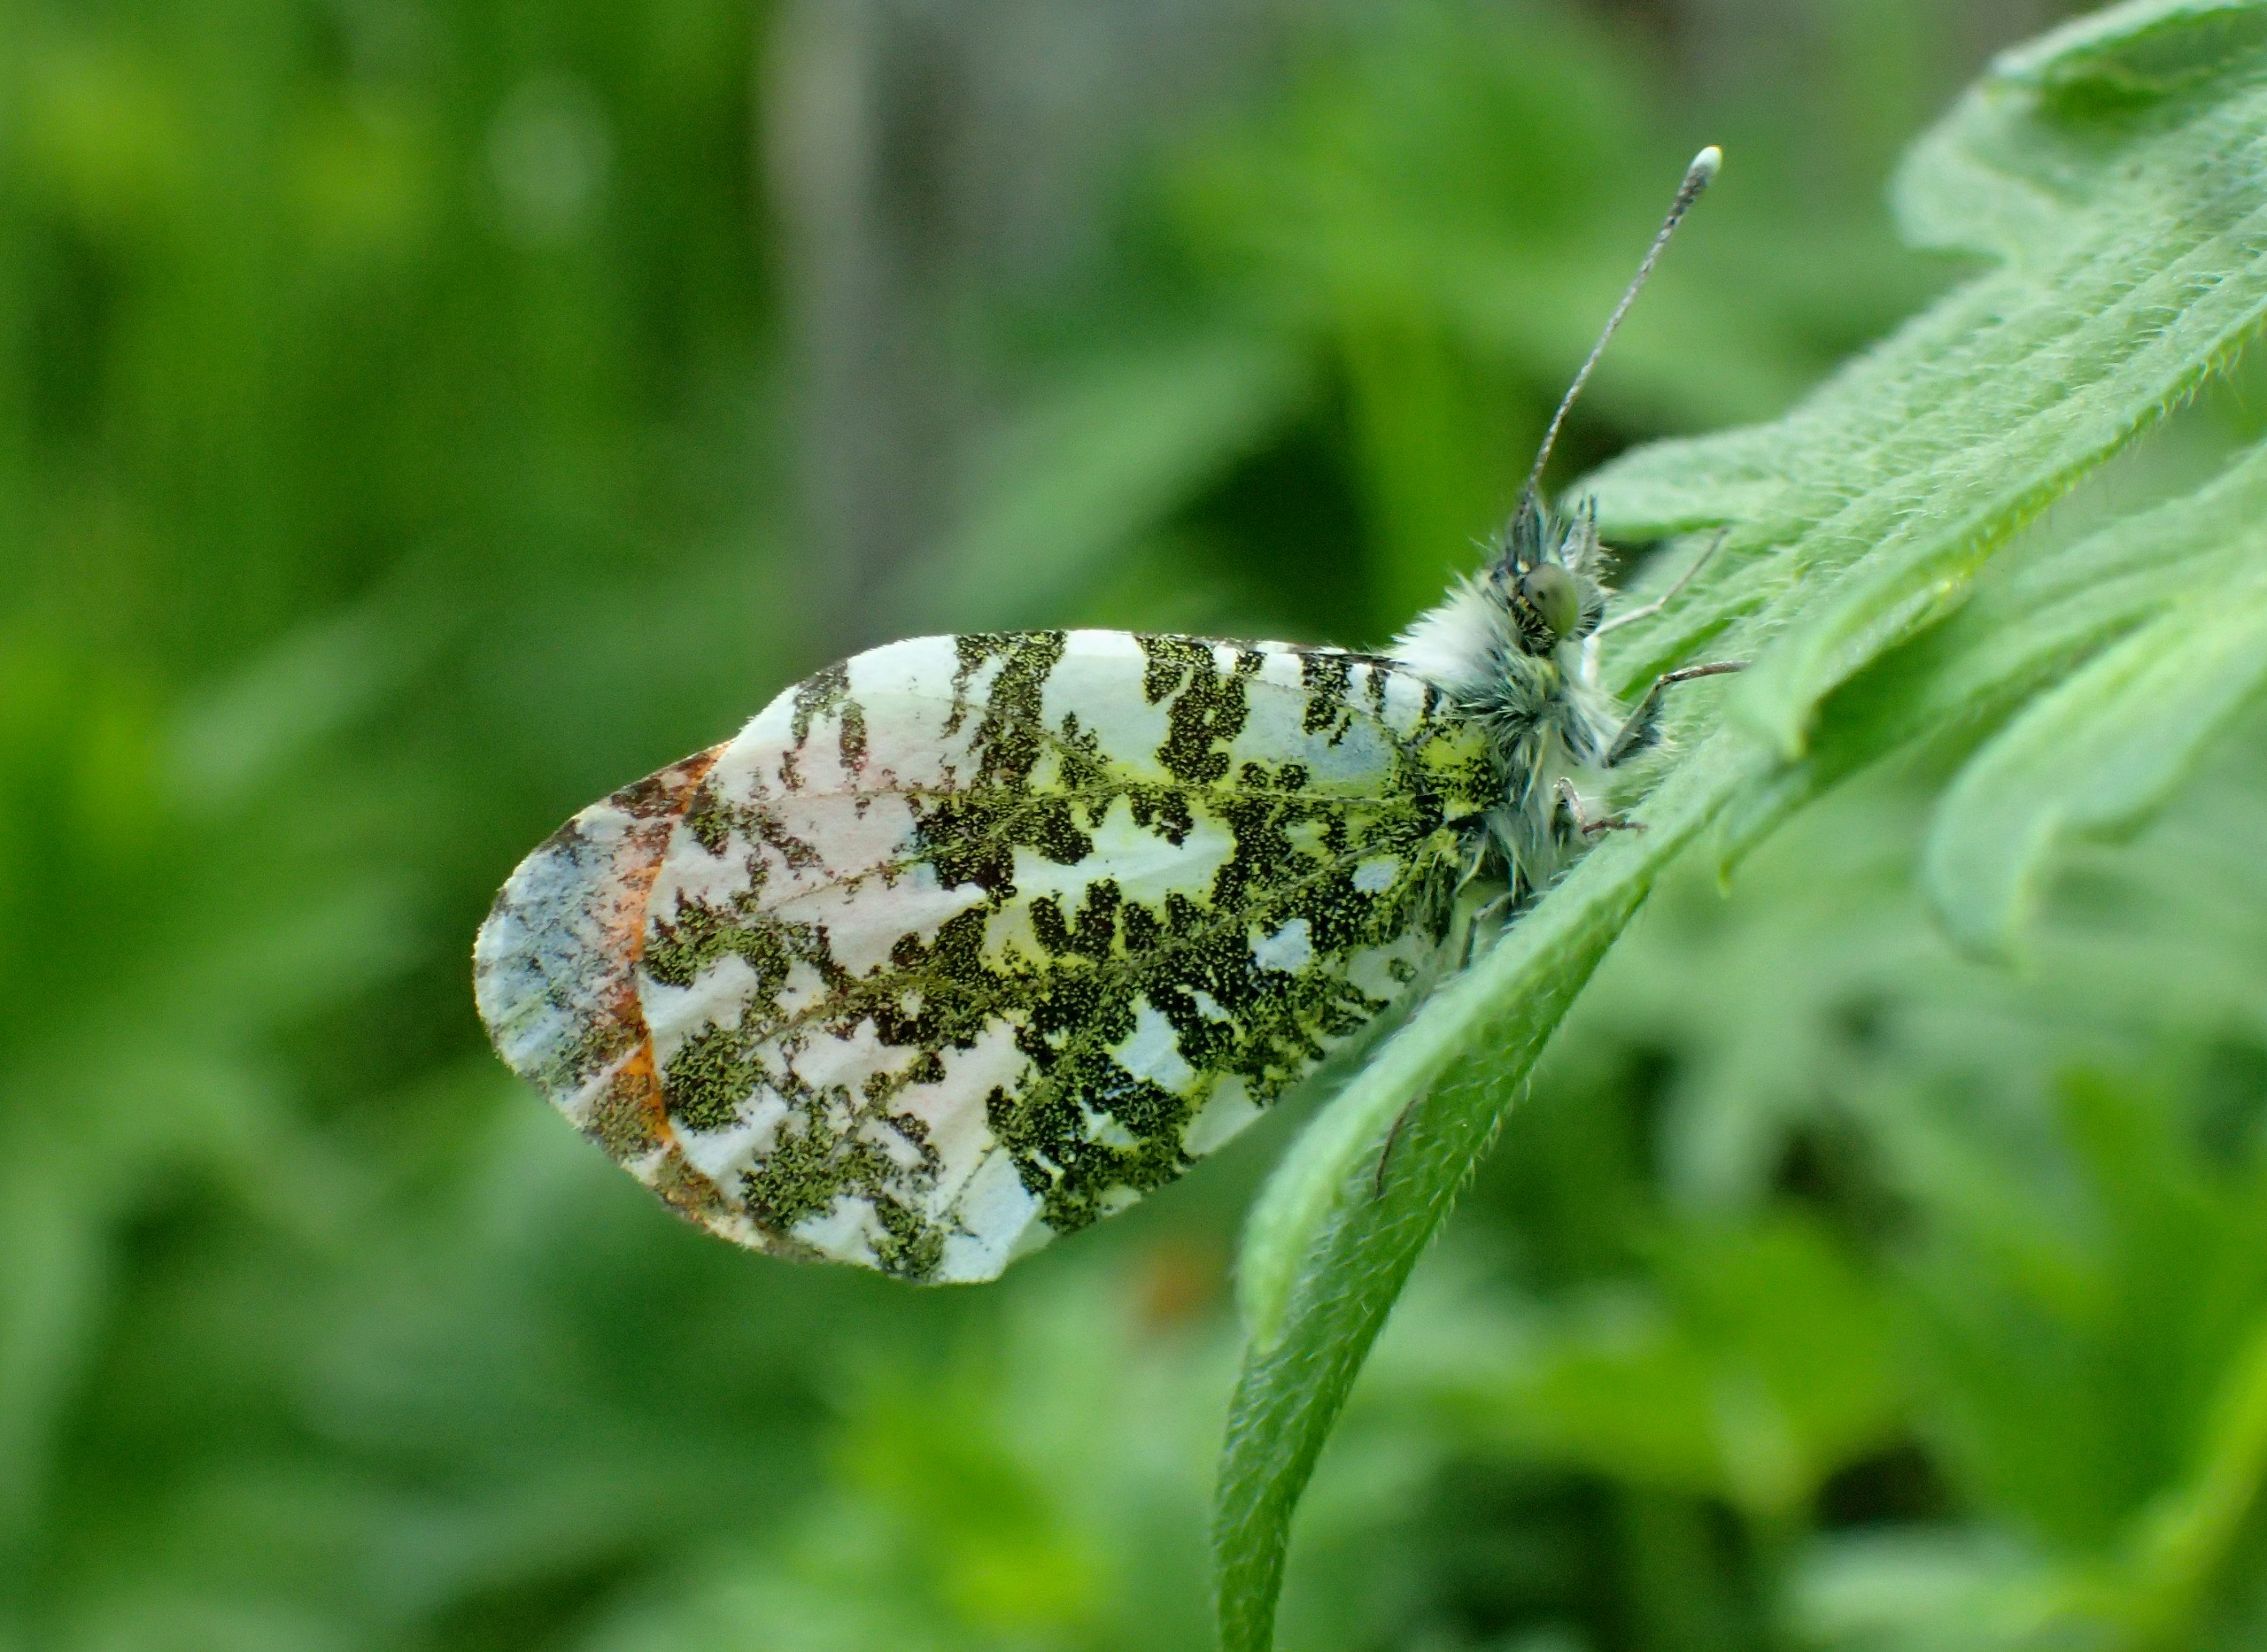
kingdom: Animalia
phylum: Arthropoda
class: Insecta
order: Lepidoptera
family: Pieridae
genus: Anthocharis
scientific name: Anthocharis cardamines
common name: Aurora
